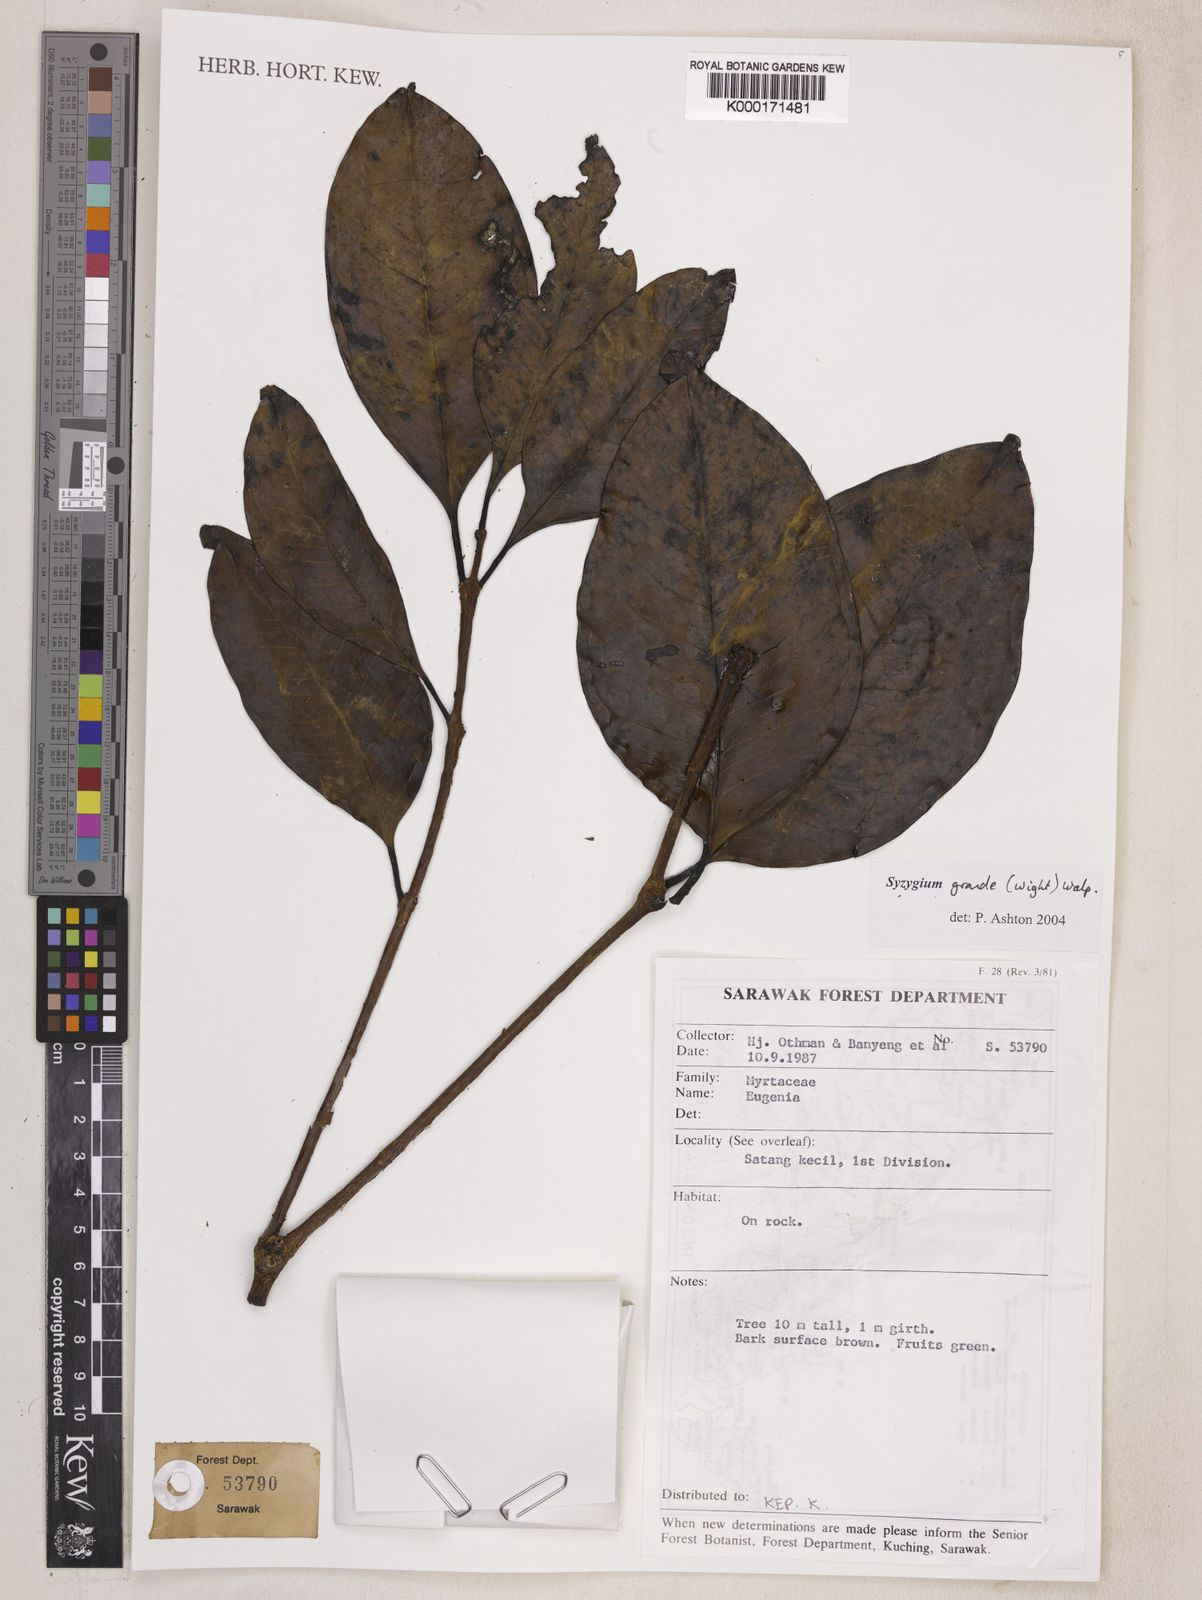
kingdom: Plantae
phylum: Tracheophyta
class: Magnoliopsida
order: Myrtales
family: Myrtaceae
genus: Syzygium
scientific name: Syzygium grande
